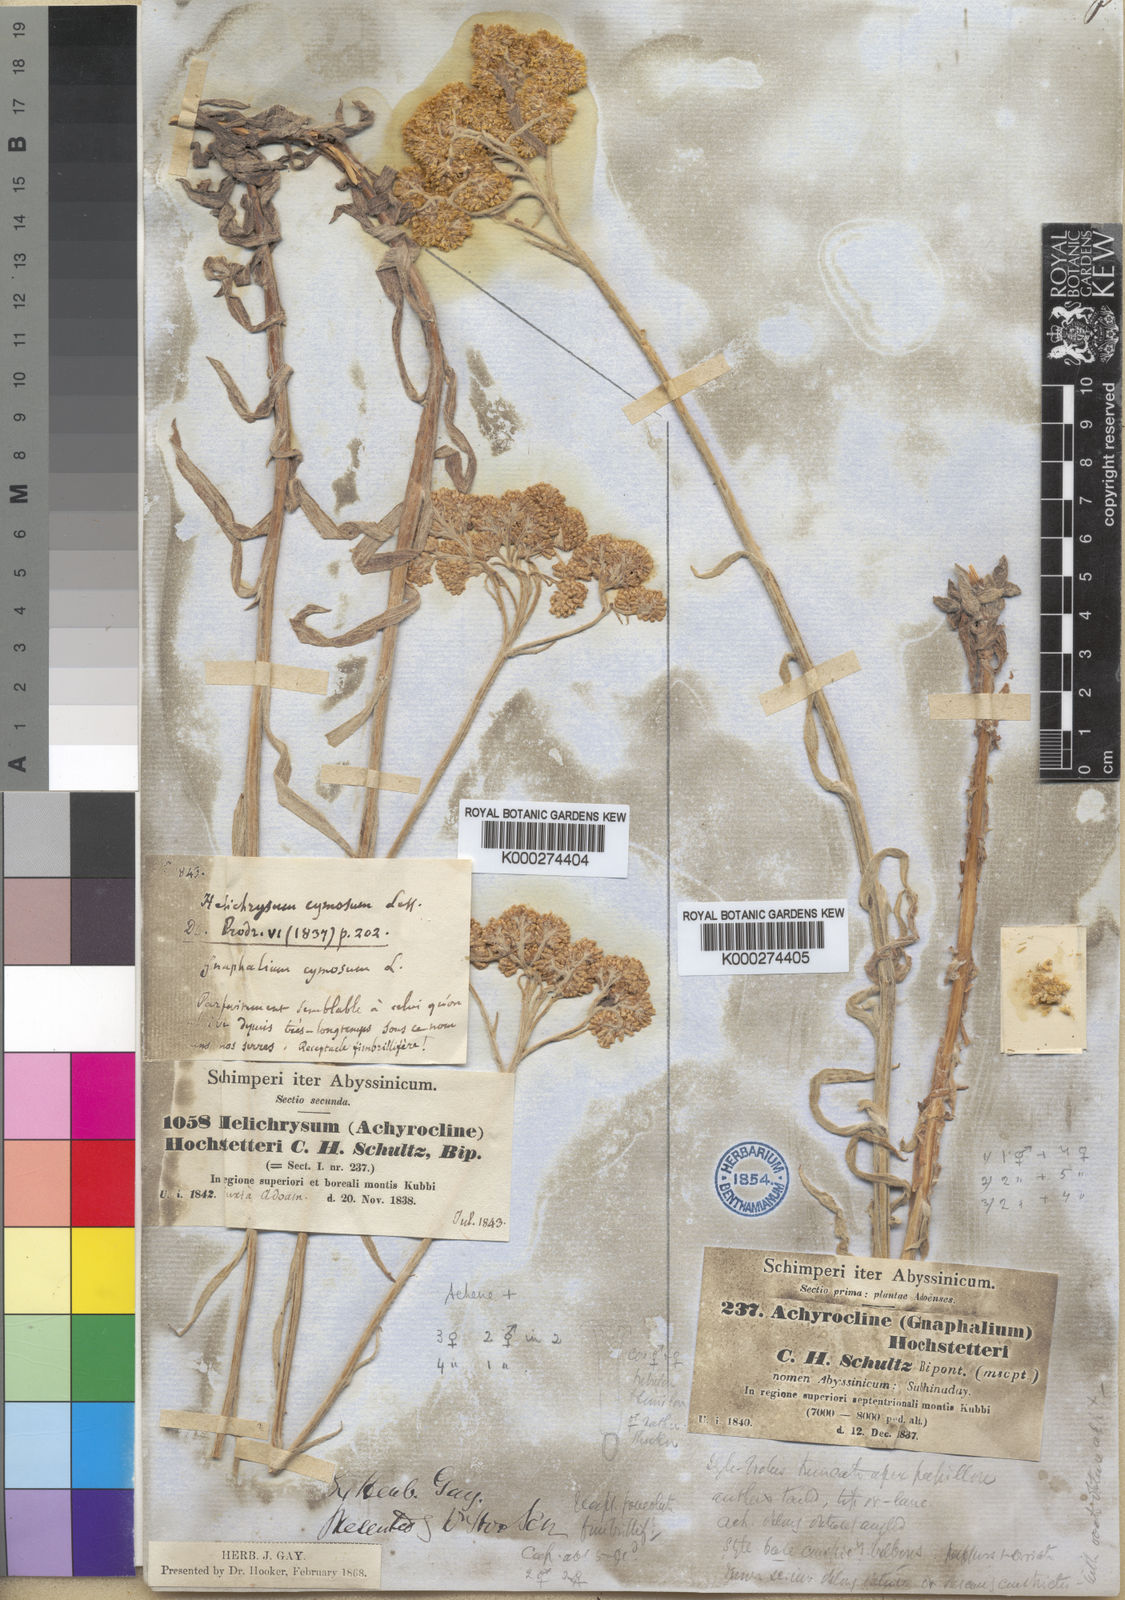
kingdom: Plantae
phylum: Tracheophyta
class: Magnoliopsida
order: Asterales
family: Asteraceae
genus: Helichrysum
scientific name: Helichrysum
